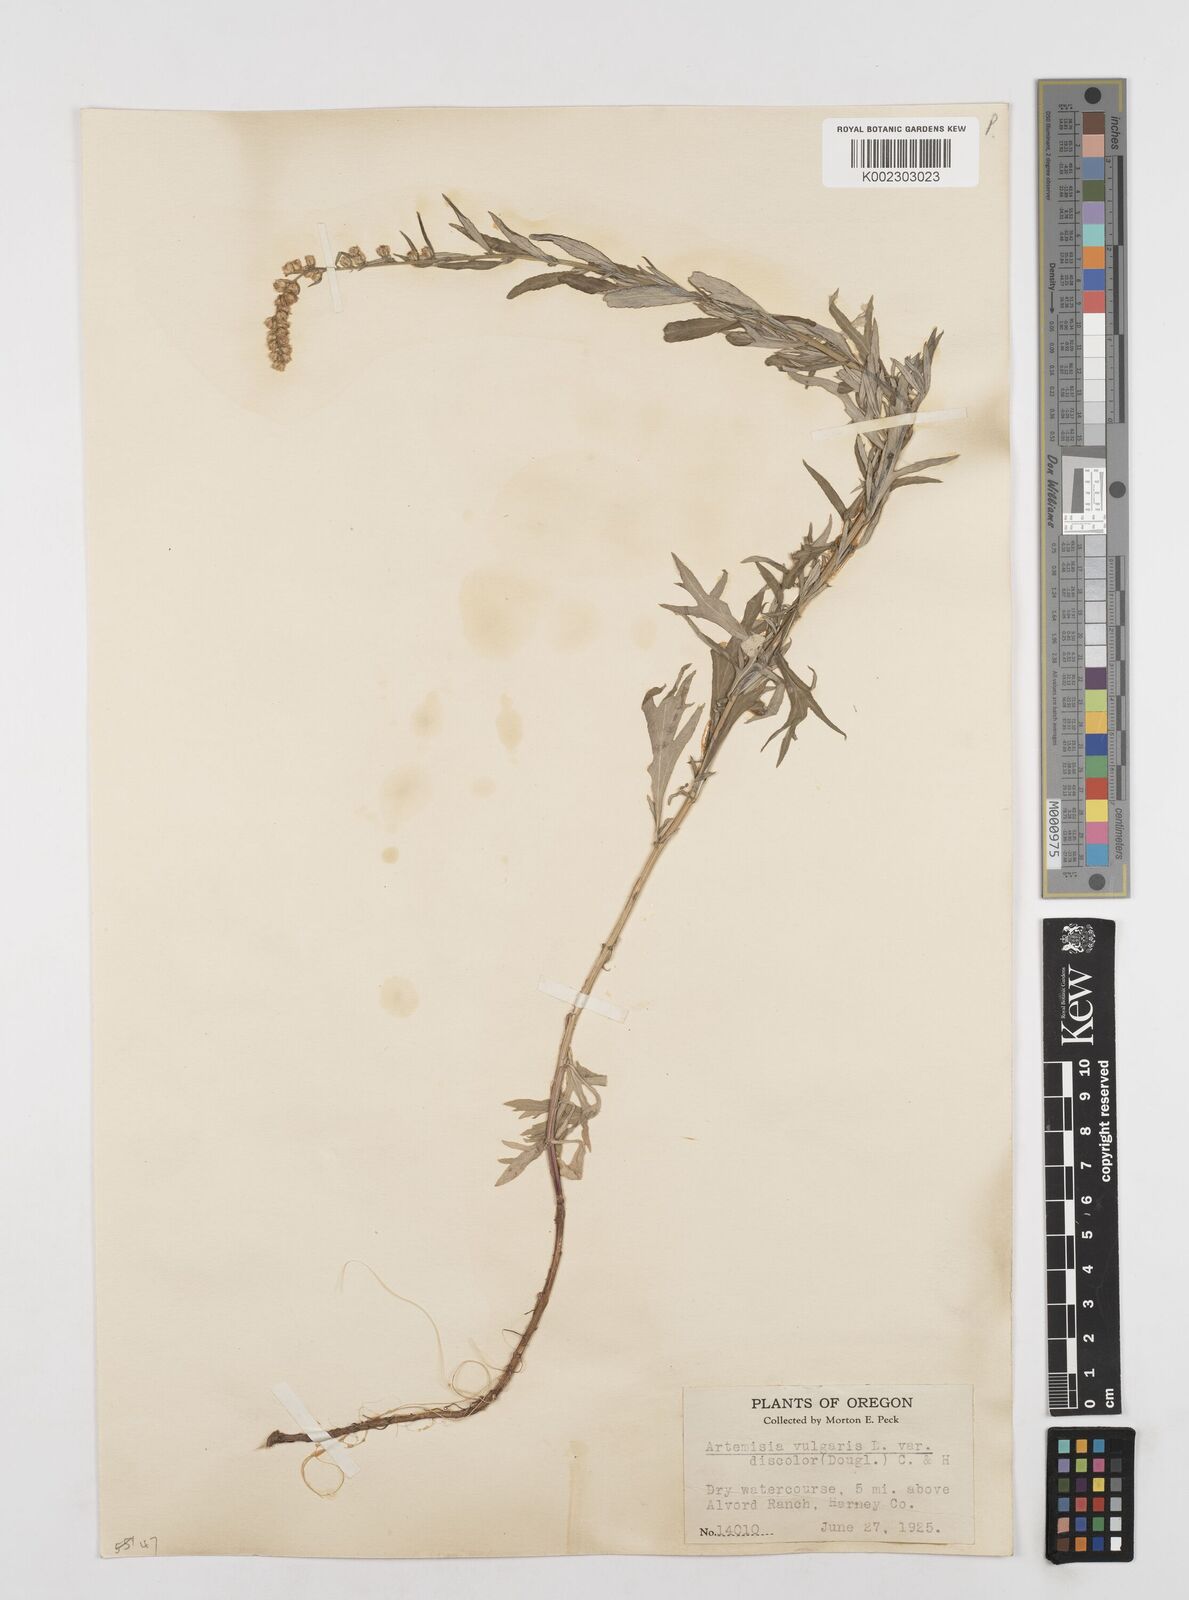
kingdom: Plantae
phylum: Tracheophyta
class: Magnoliopsida
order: Asterales
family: Asteraceae
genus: Artemisia
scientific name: Artemisia michauxiana
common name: Lemon sagewort
